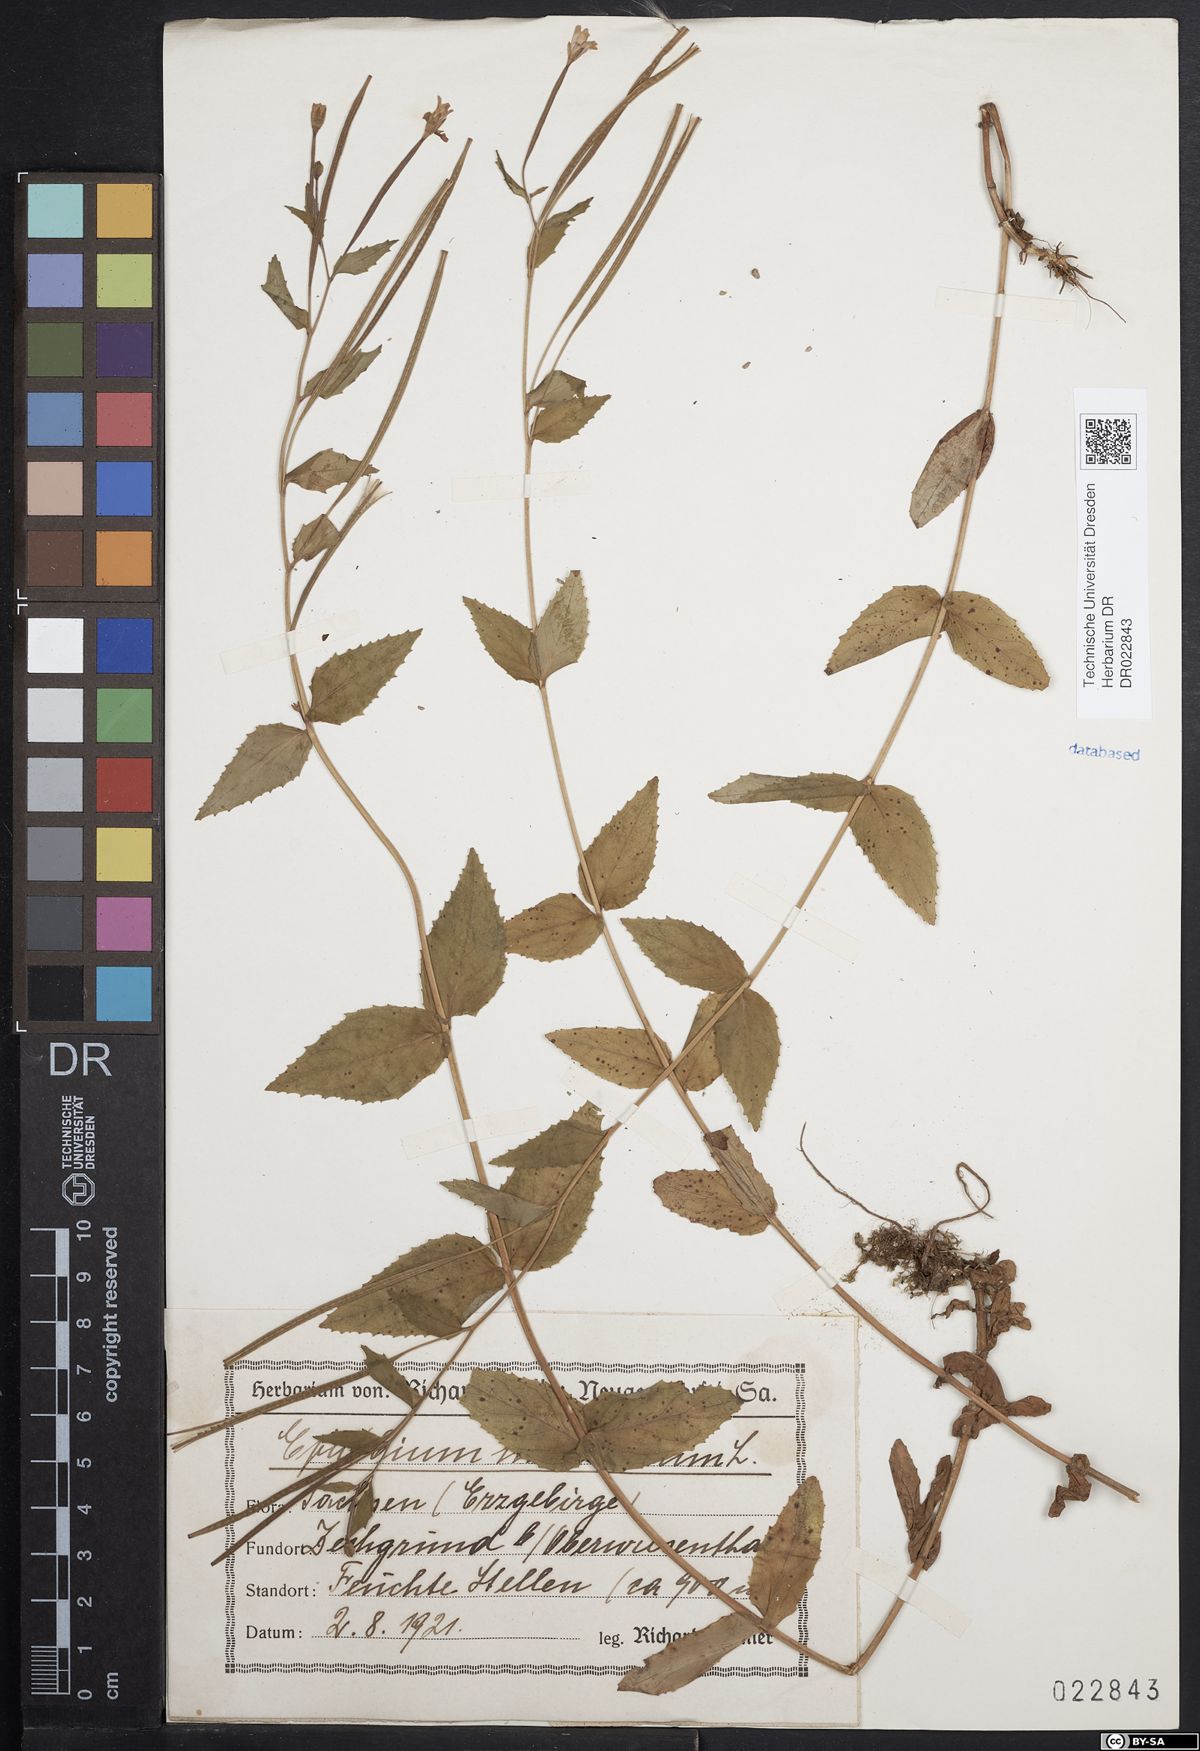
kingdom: Plantae
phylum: Tracheophyta
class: Magnoliopsida
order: Myrtales
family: Onagraceae
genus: Epilobium
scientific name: Epilobium montanum
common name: Broad-leaved willowherb
